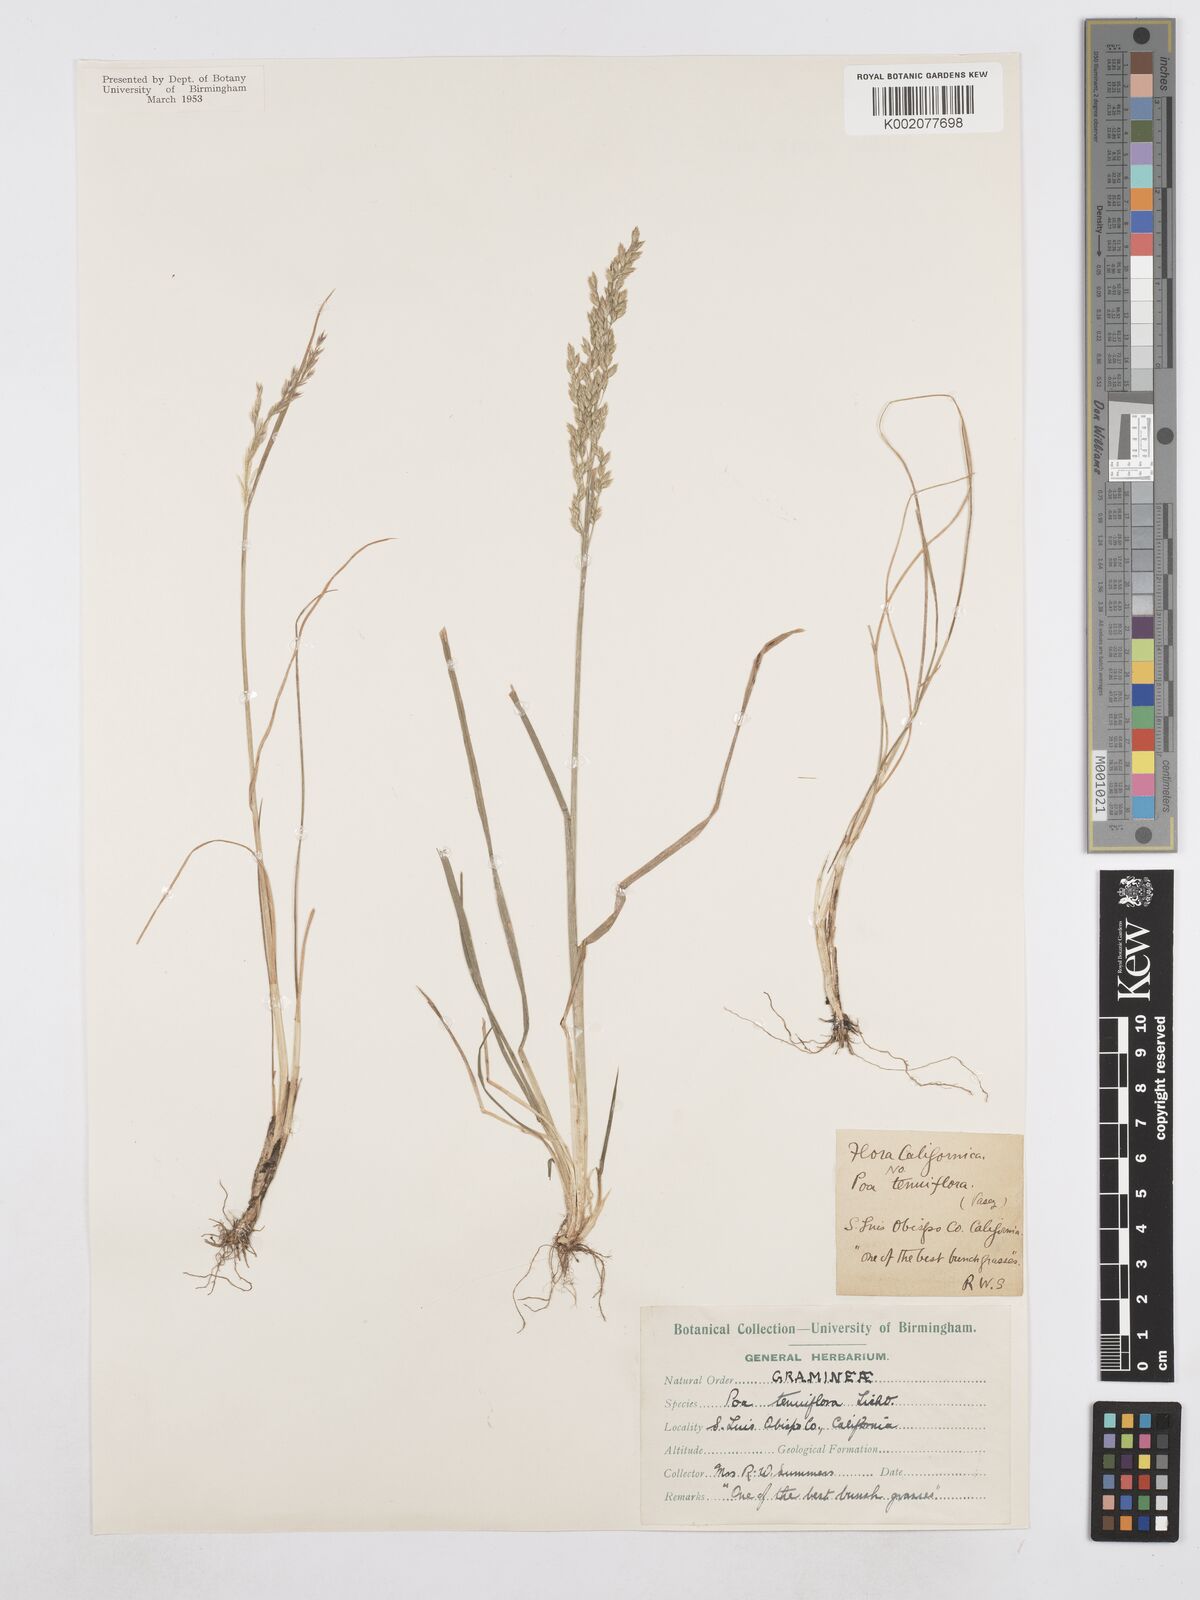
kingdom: Plantae
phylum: Tracheophyta
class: Liliopsida
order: Poales
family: Poaceae
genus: Poa
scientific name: Poa secunda
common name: Sandberg bluegrass
